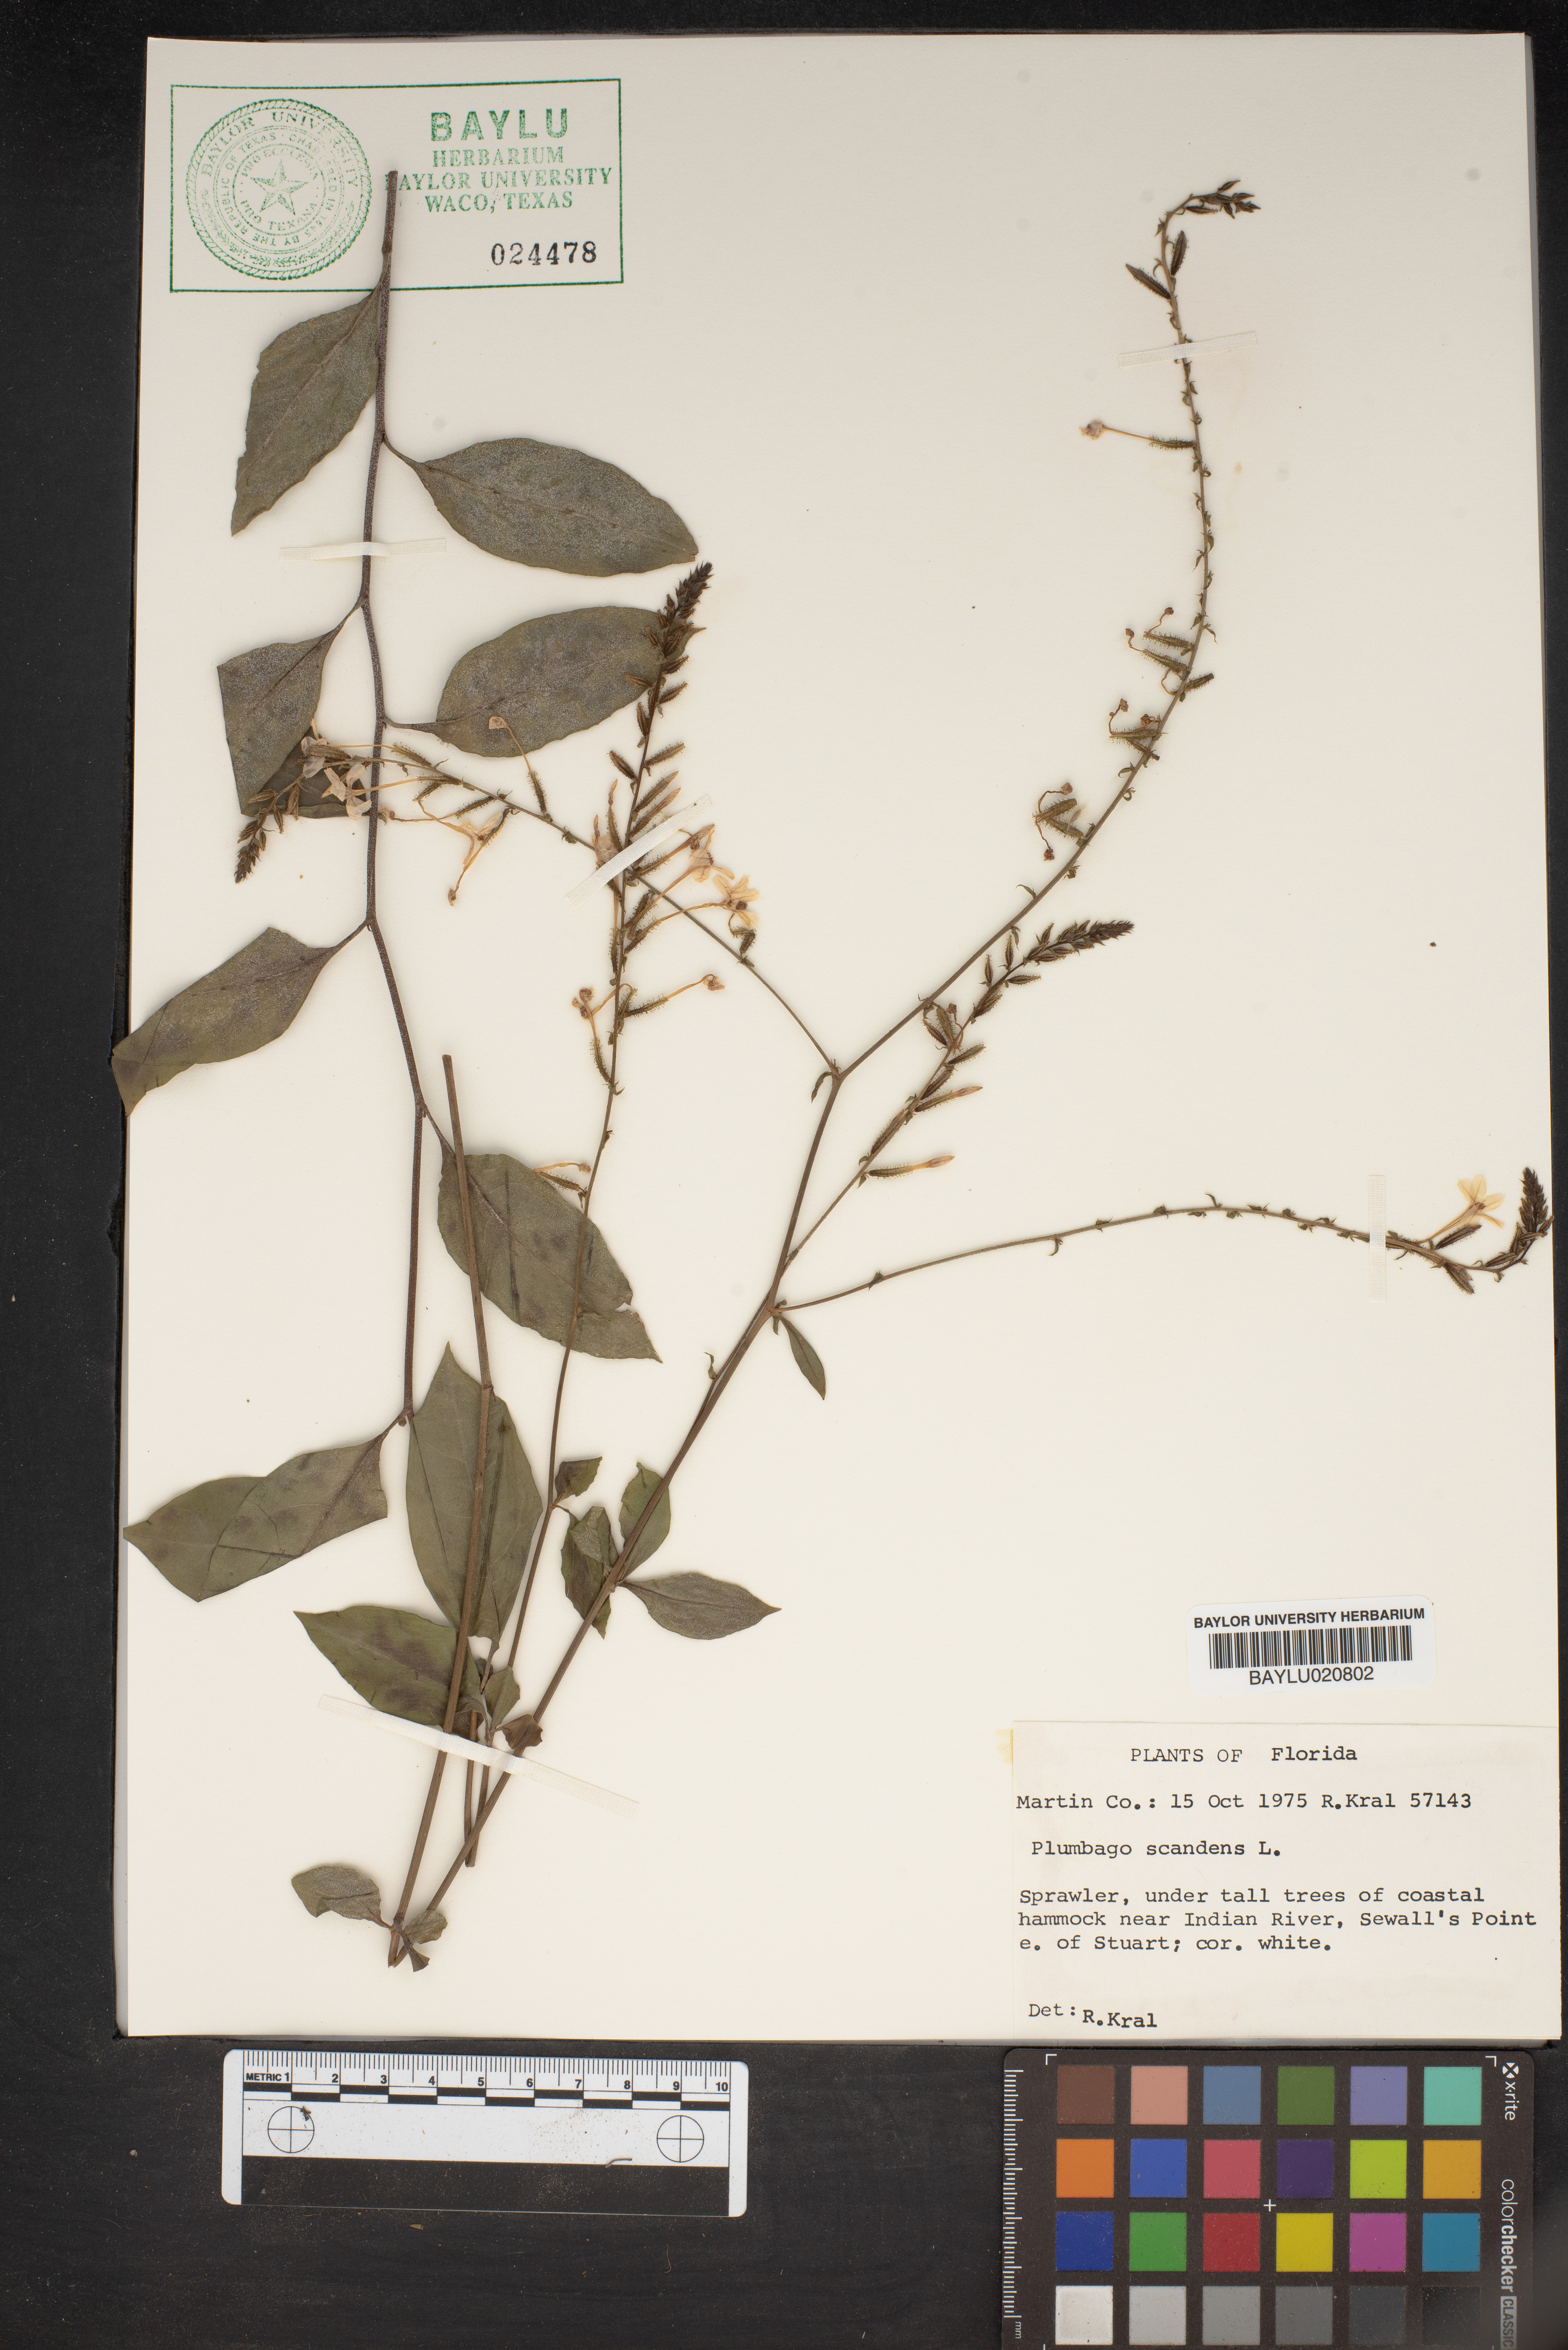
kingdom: Plantae
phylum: Tracheophyta
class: Magnoliopsida
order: Caryophyllales
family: Plumbaginaceae
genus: Plumbago
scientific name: Plumbago zeylanica
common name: Doctorbush
